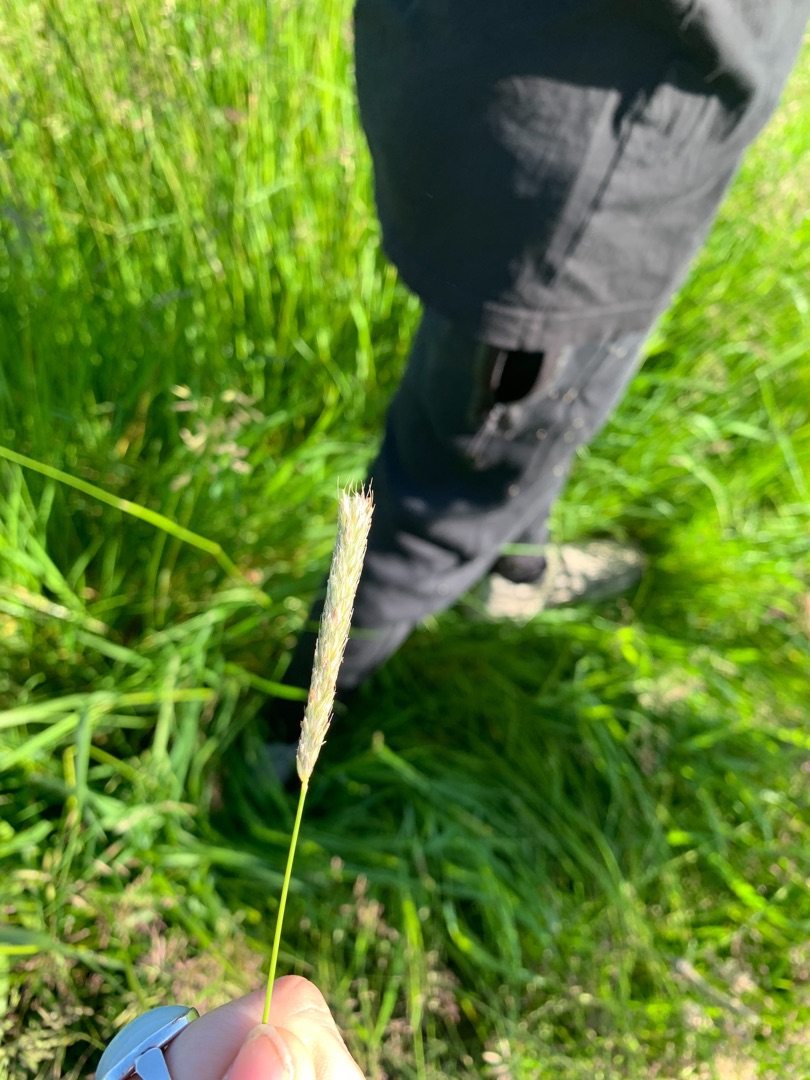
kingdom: Plantae
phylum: Tracheophyta
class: Liliopsida
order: Poales
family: Poaceae
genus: Alopecurus
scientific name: Alopecurus pratensis
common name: Eng-rævehale
